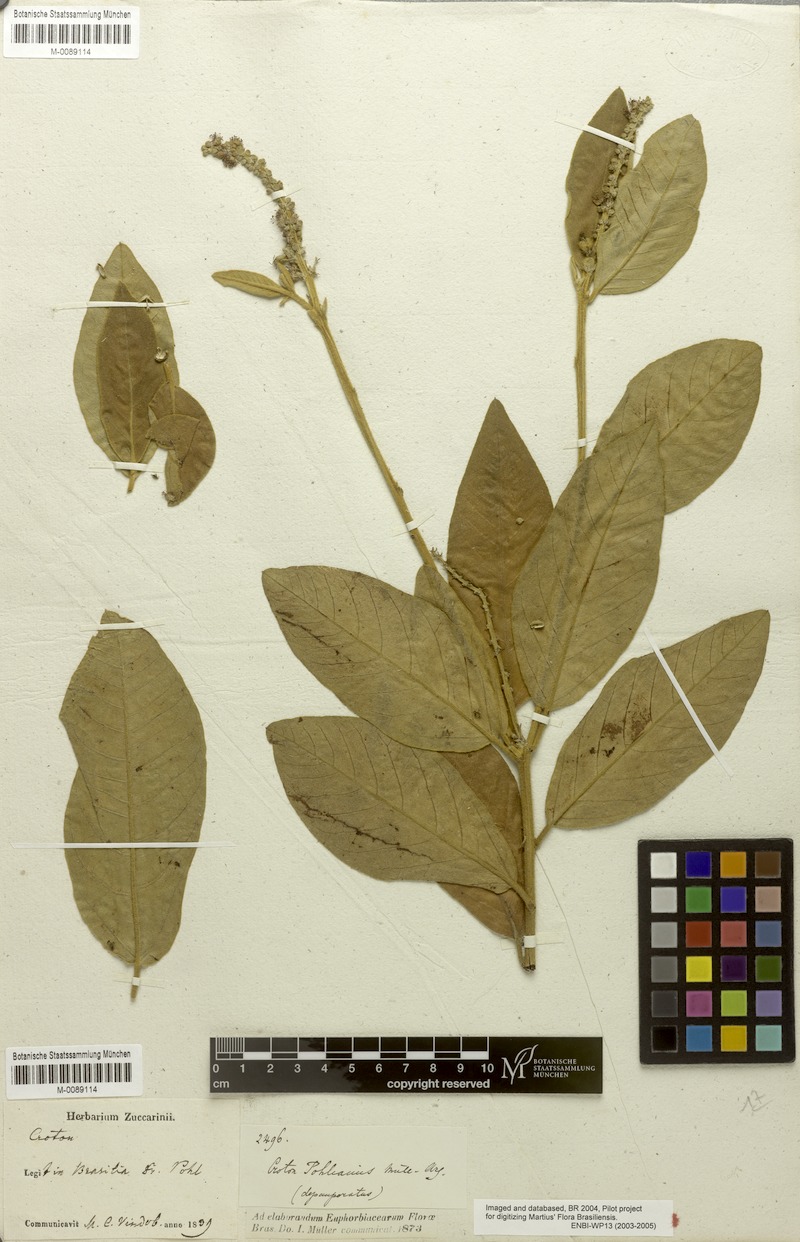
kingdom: Plantae
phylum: Tracheophyta
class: Magnoliopsida
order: Malpighiales
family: Euphorbiaceae
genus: Croton
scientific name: Croton grandivelum
